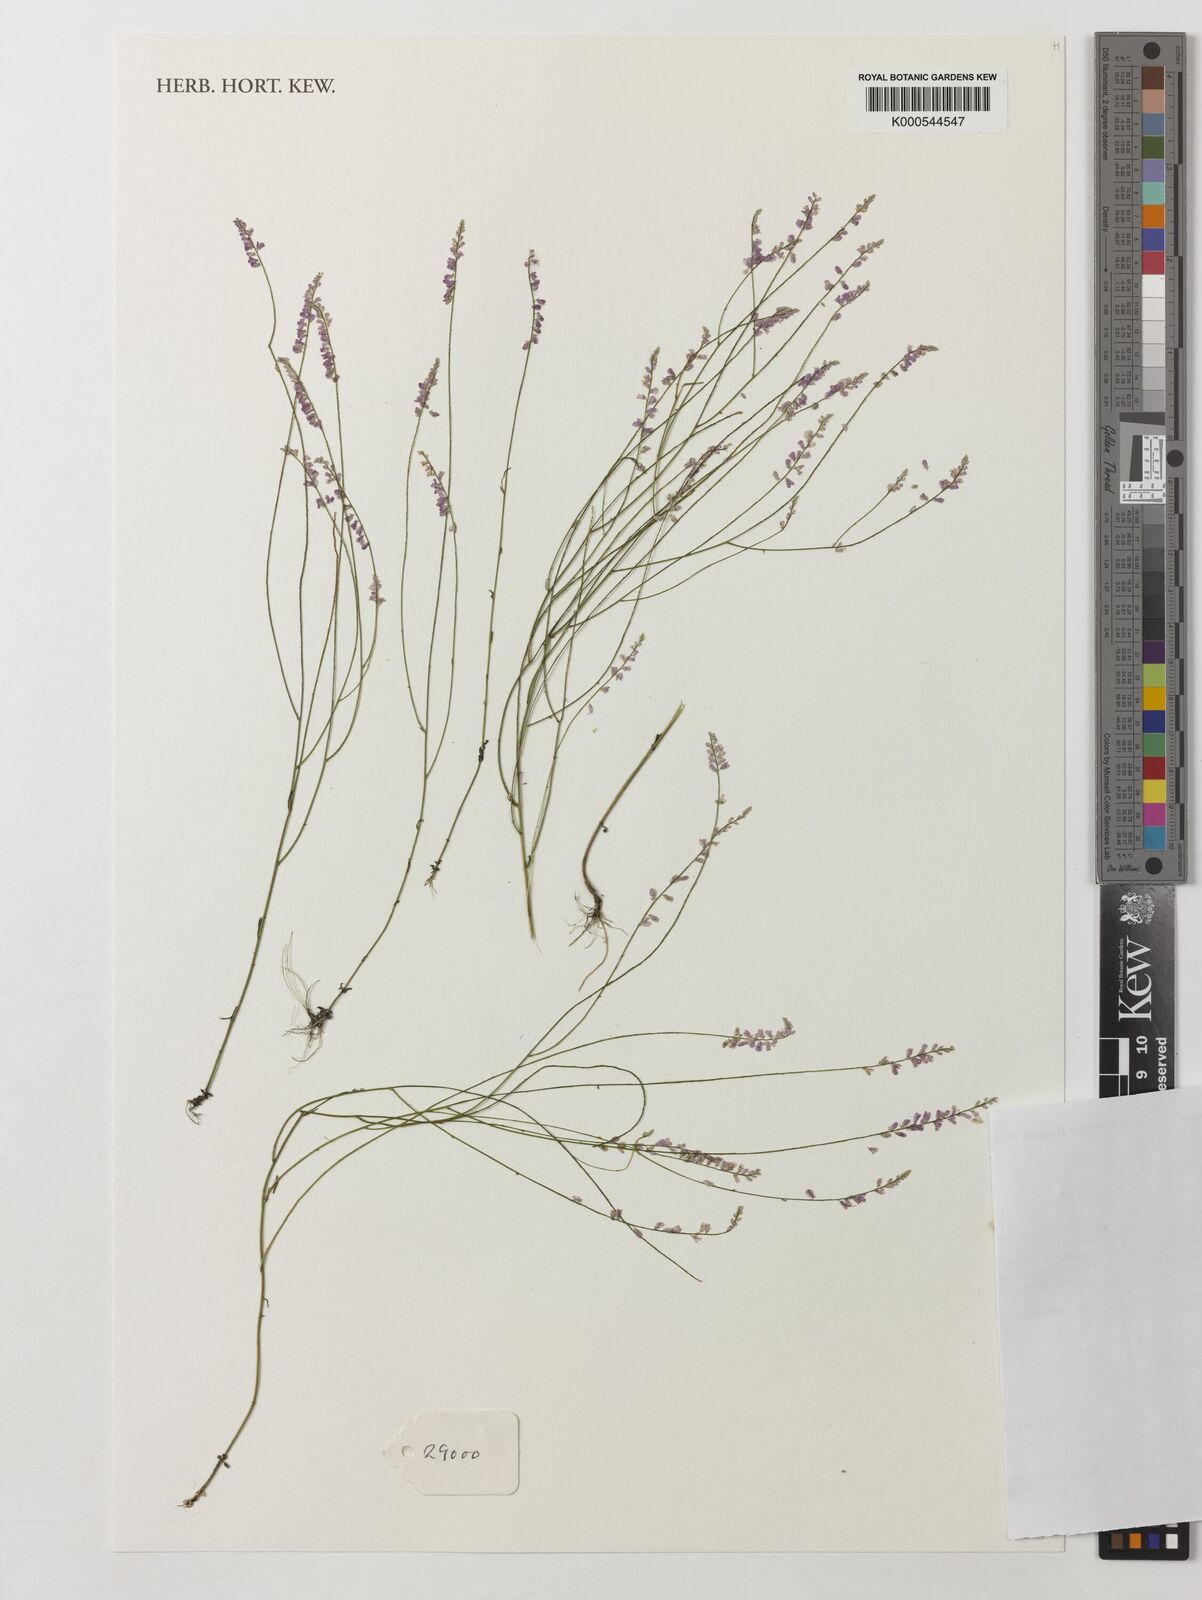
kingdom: Plantae
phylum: Tracheophyta
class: Magnoliopsida
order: Fabales
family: Polygalaceae
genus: Polygala
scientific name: Polygala glochidiata
